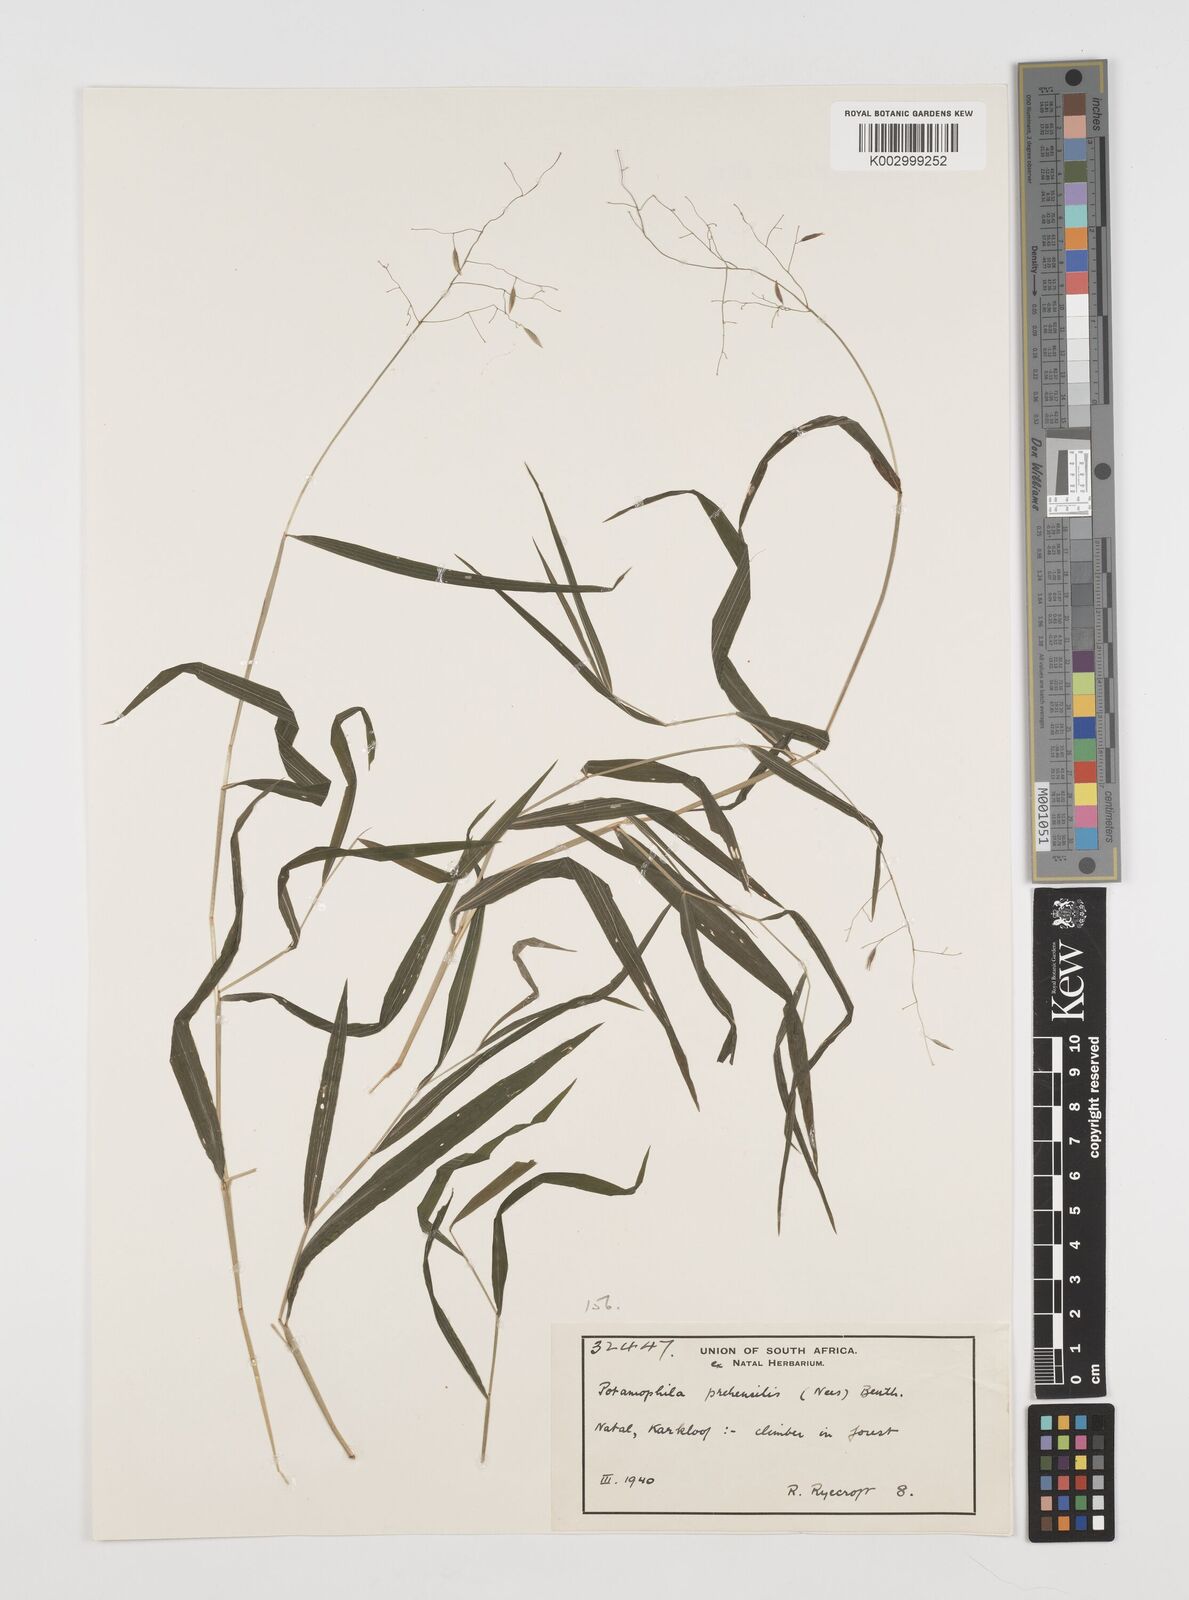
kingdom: Plantae
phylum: Tracheophyta
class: Liliopsida
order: Poales
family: Poaceae
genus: Prosphytochloa
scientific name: Prosphytochloa prehensilis
